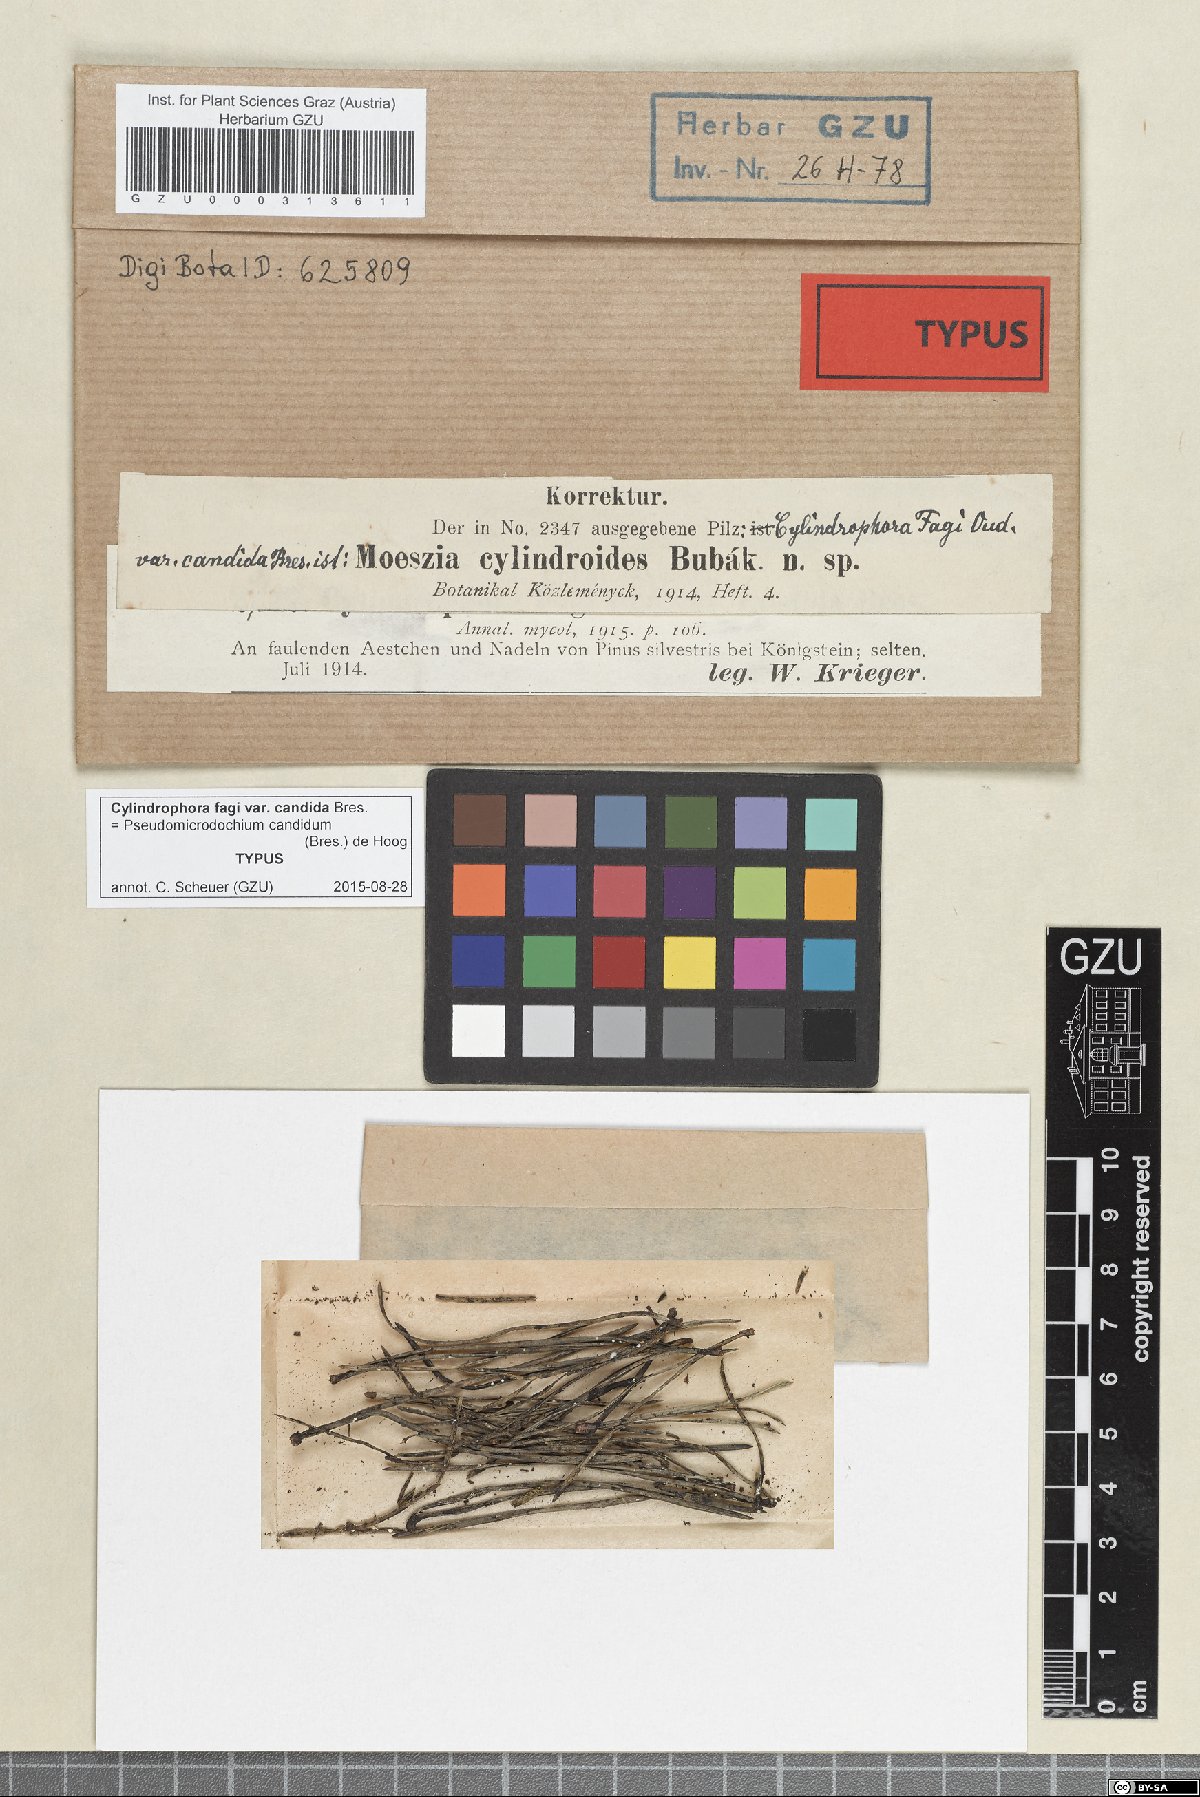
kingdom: Fungi
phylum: Ascomycota
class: Sordariomycetes
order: Hypocreales
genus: Pseudomicrodochium
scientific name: Pseudomicrodochium candidum
